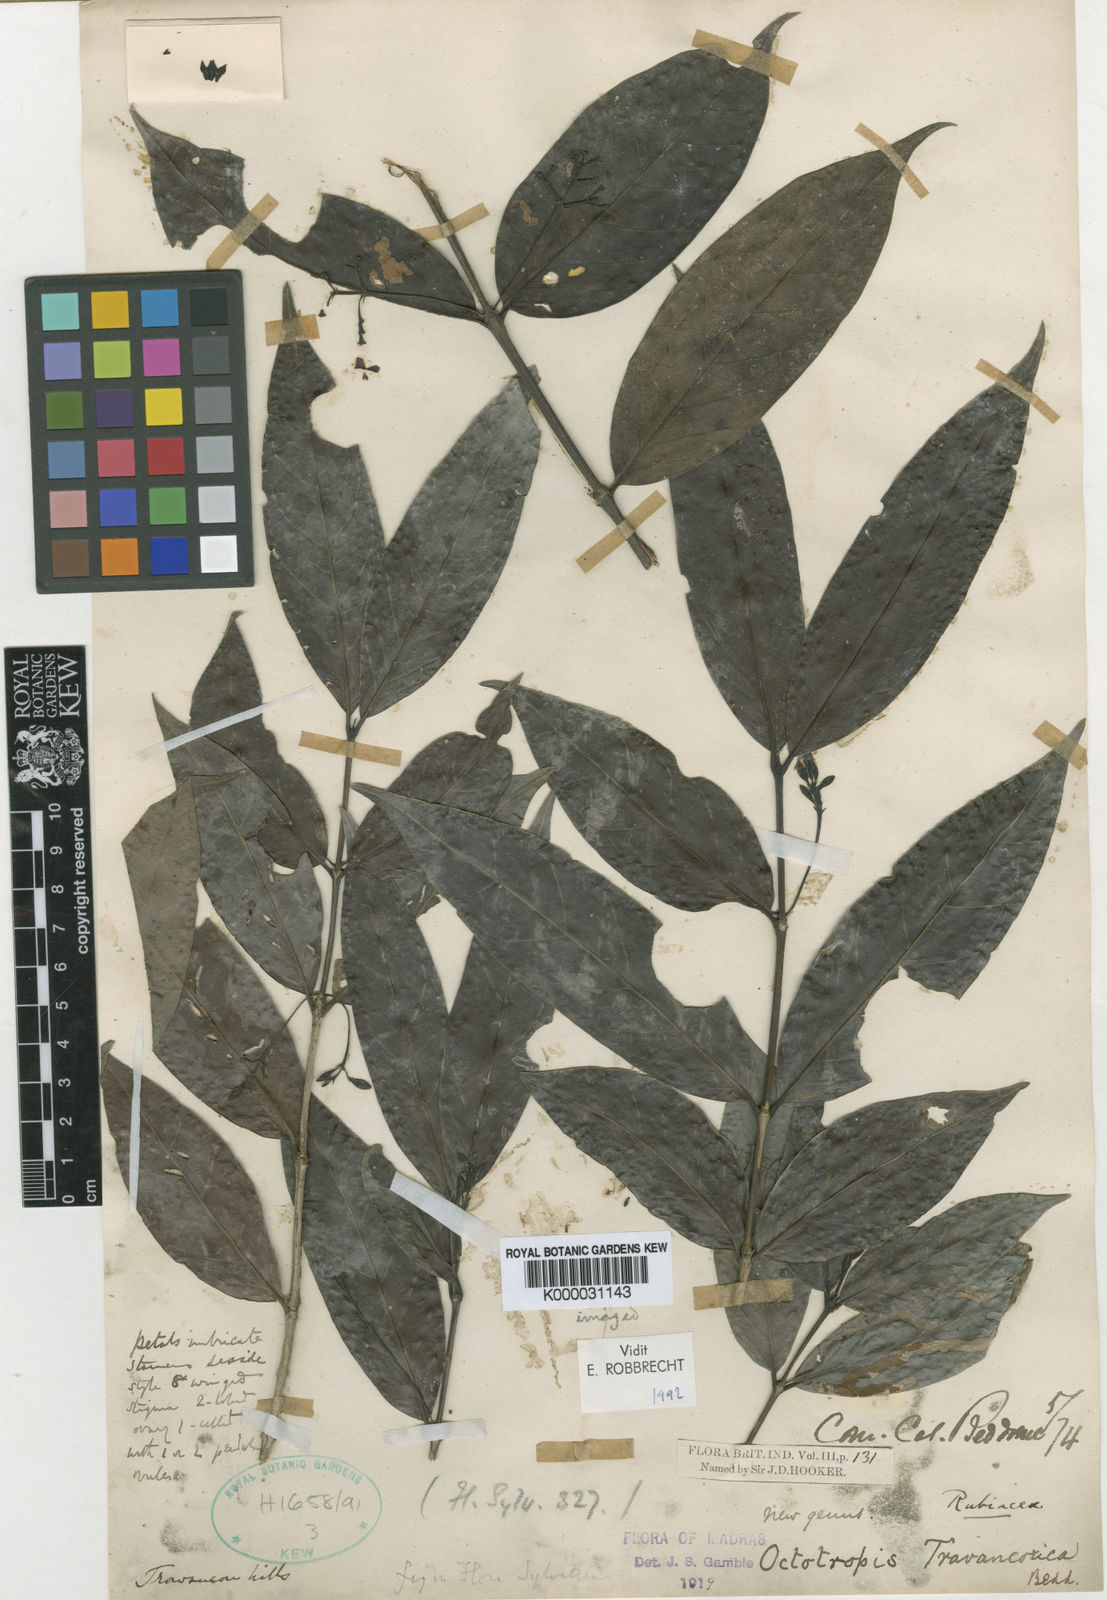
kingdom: Plantae
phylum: Tracheophyta
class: Magnoliopsida
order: Gentianales
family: Rubiaceae
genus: Octotropis
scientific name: Octotropis travancorica
